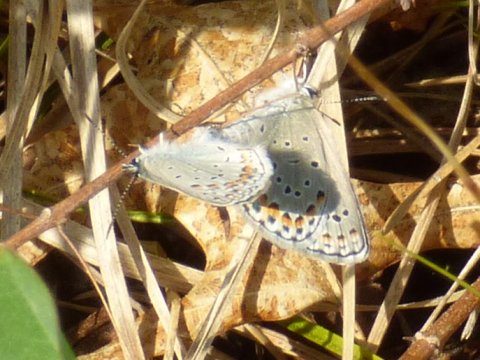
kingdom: Animalia
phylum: Arthropoda
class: Insecta
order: Lepidoptera
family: Lycaenidae
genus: Plebejus
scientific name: Plebejus samuelis
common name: Karner Blue
